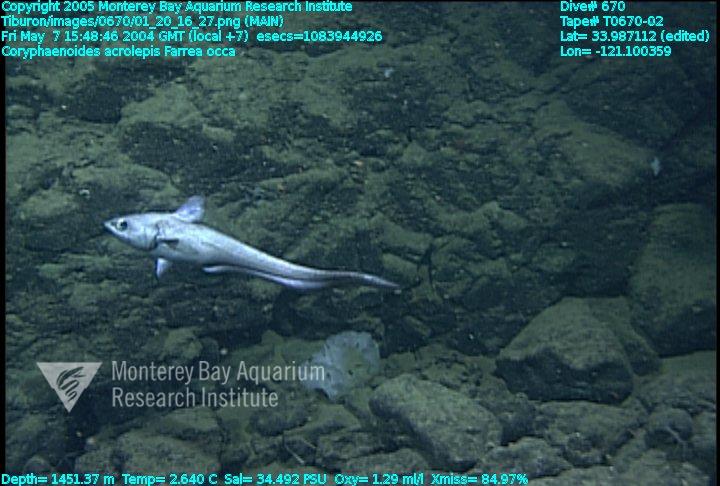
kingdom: Animalia
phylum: Porifera
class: Hexactinellida
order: Sceptrulophora
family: Farreidae
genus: Farrea
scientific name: Farrea occa
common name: Reversed glass sponge
